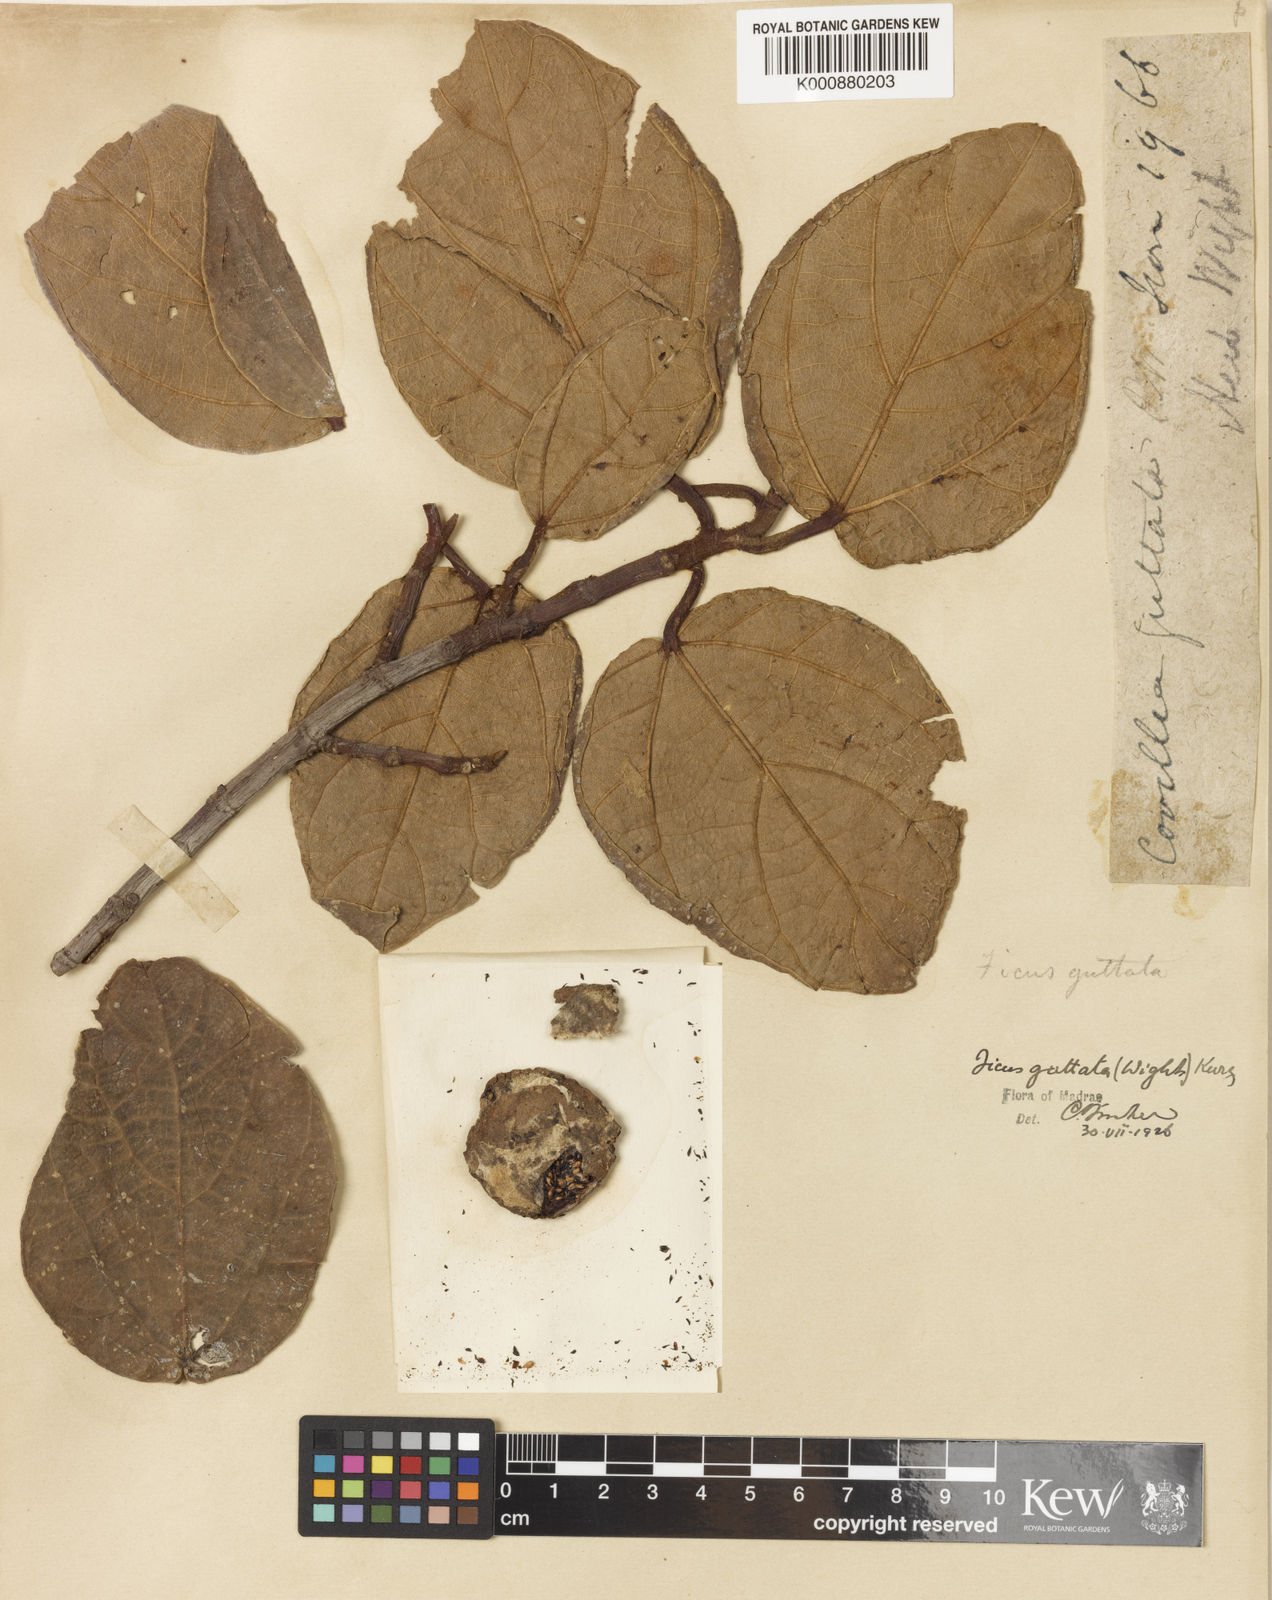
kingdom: Plantae
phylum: Tracheophyta
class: Magnoliopsida
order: Rosales
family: Moraceae
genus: Ficus
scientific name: Ficus laevis
